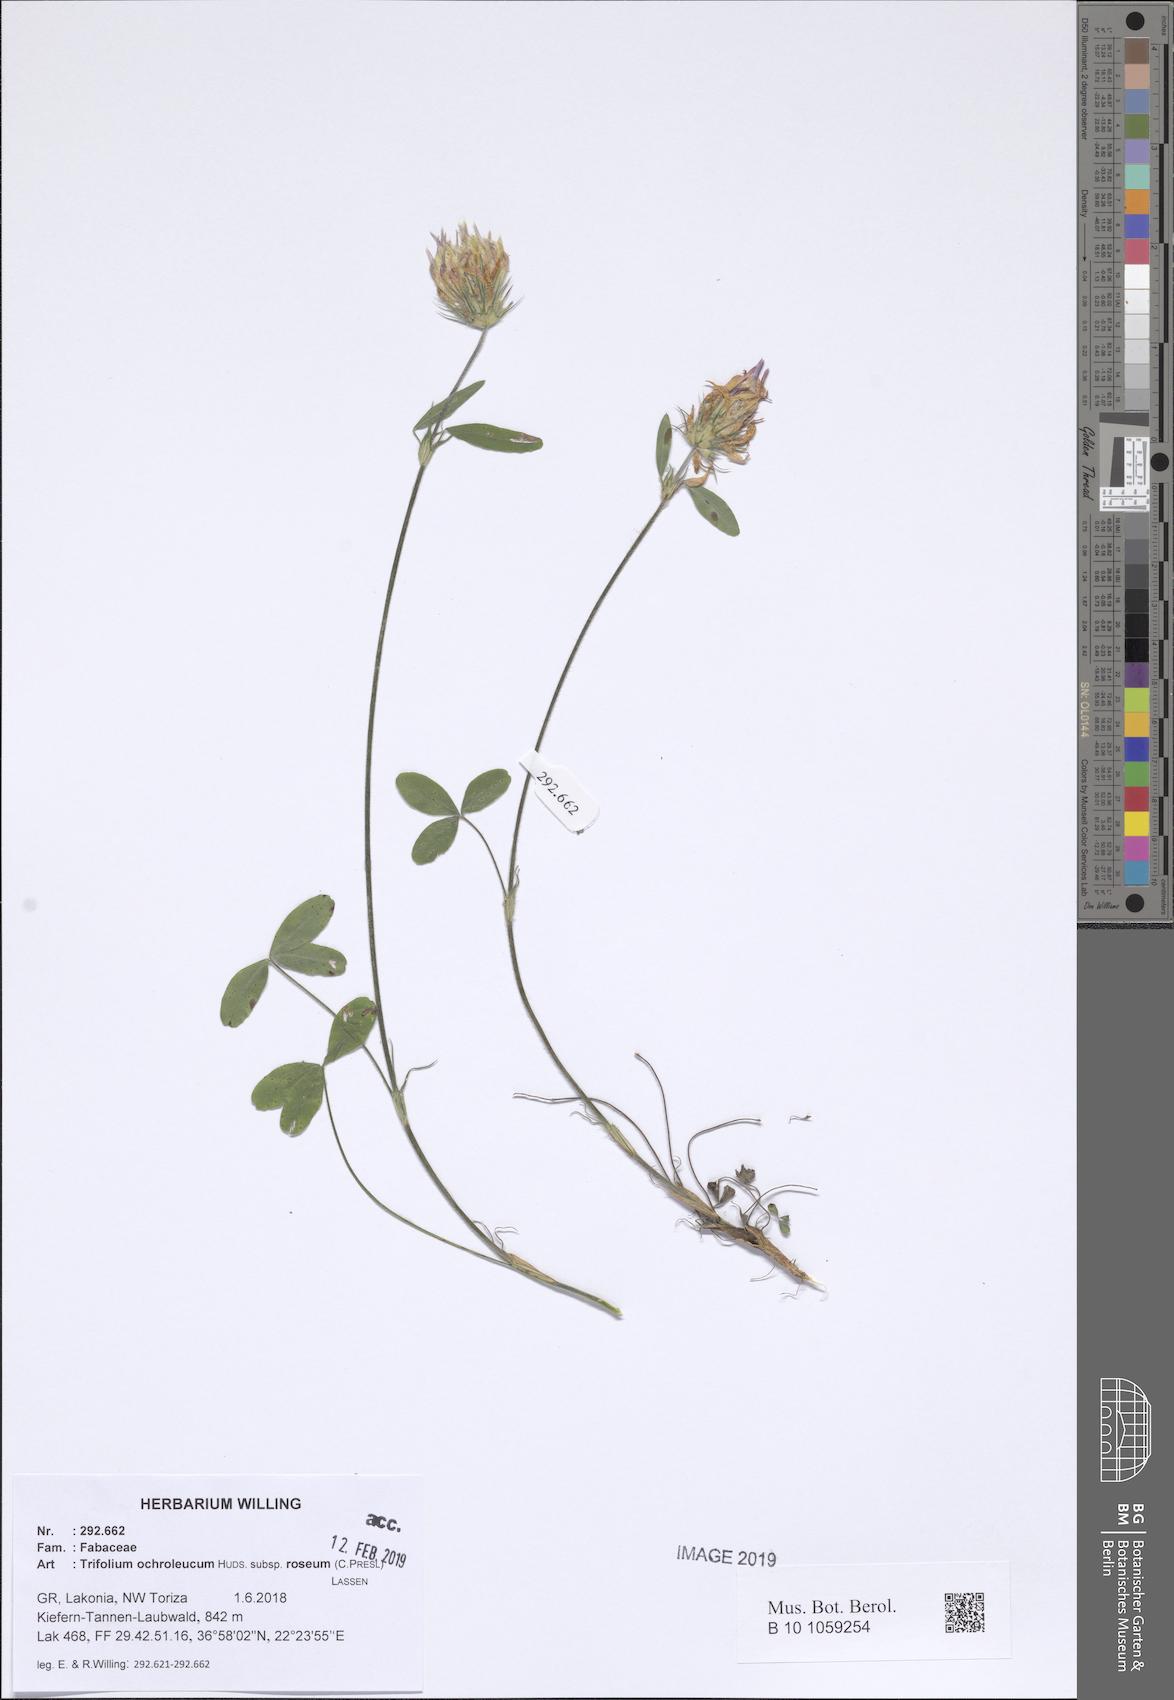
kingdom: Plantae
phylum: Tracheophyta
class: Magnoliopsida
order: Fabales
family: Fabaceae
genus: Trifolium
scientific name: Trifolium ochroleucon
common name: Sulphur clover
